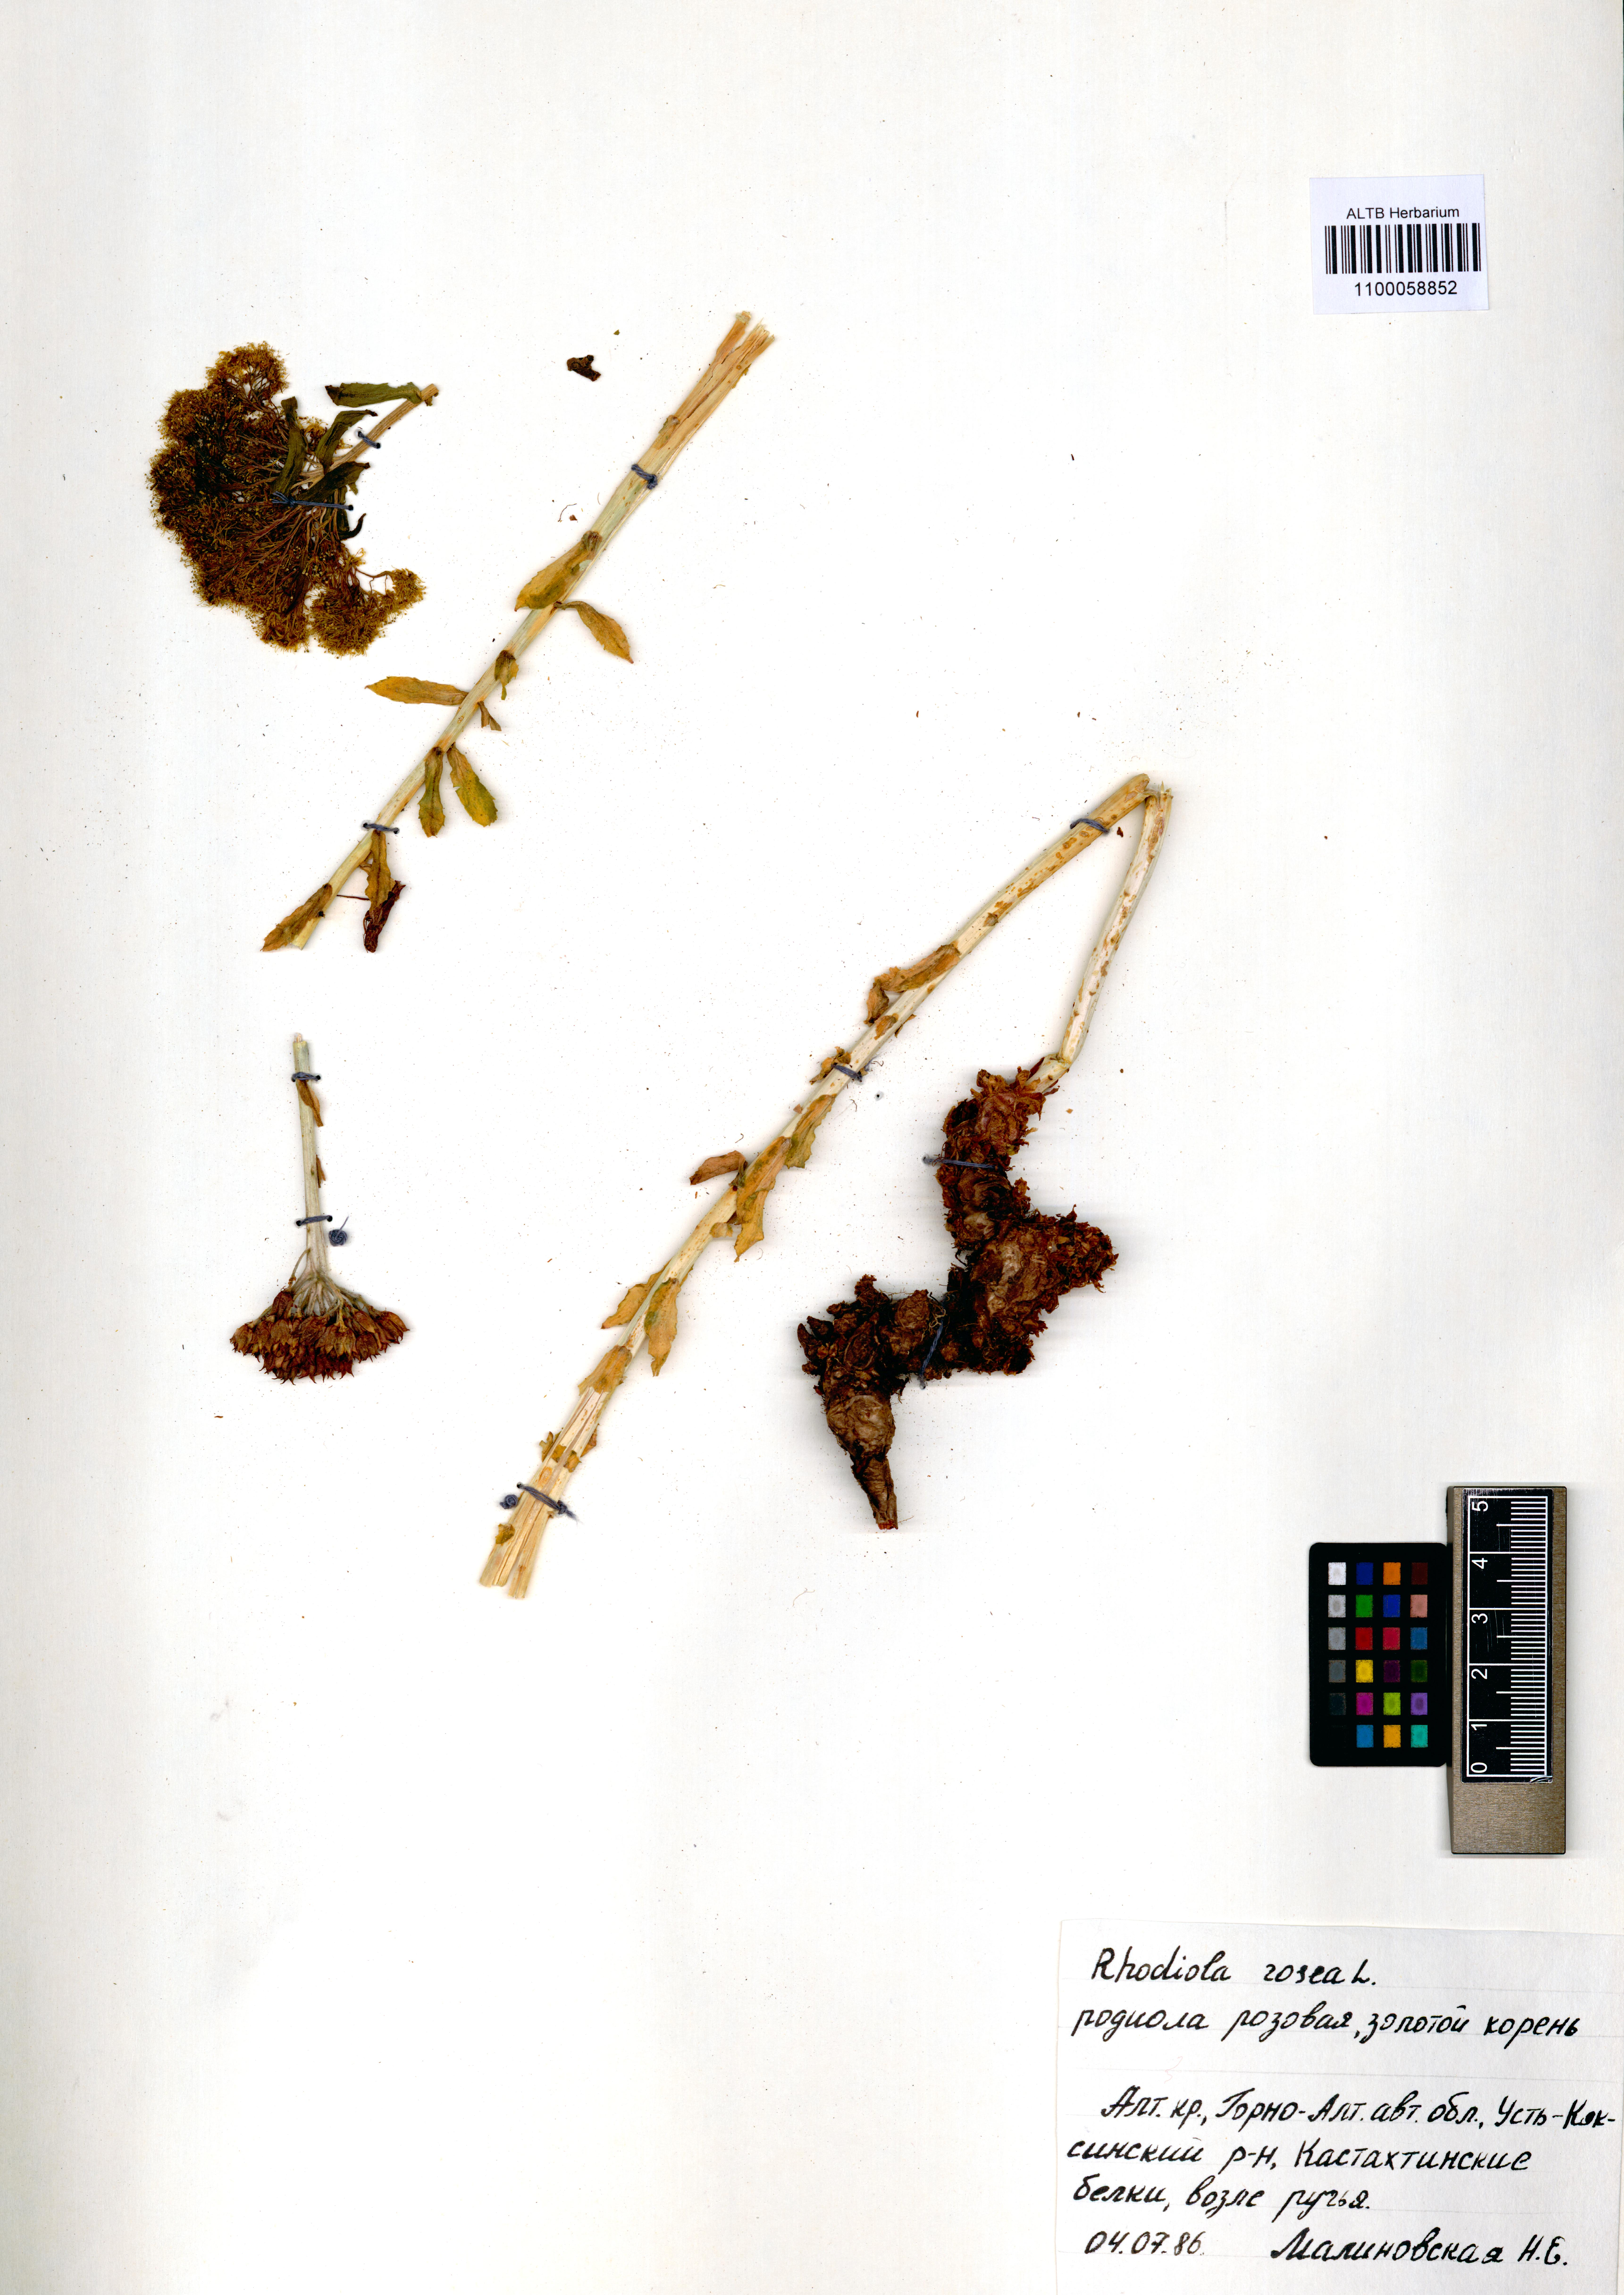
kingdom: Plantae
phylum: Tracheophyta
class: Magnoliopsida
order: Saxifragales
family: Crassulaceae
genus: Rhodiola
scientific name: Rhodiola rosea
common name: Roseroot
